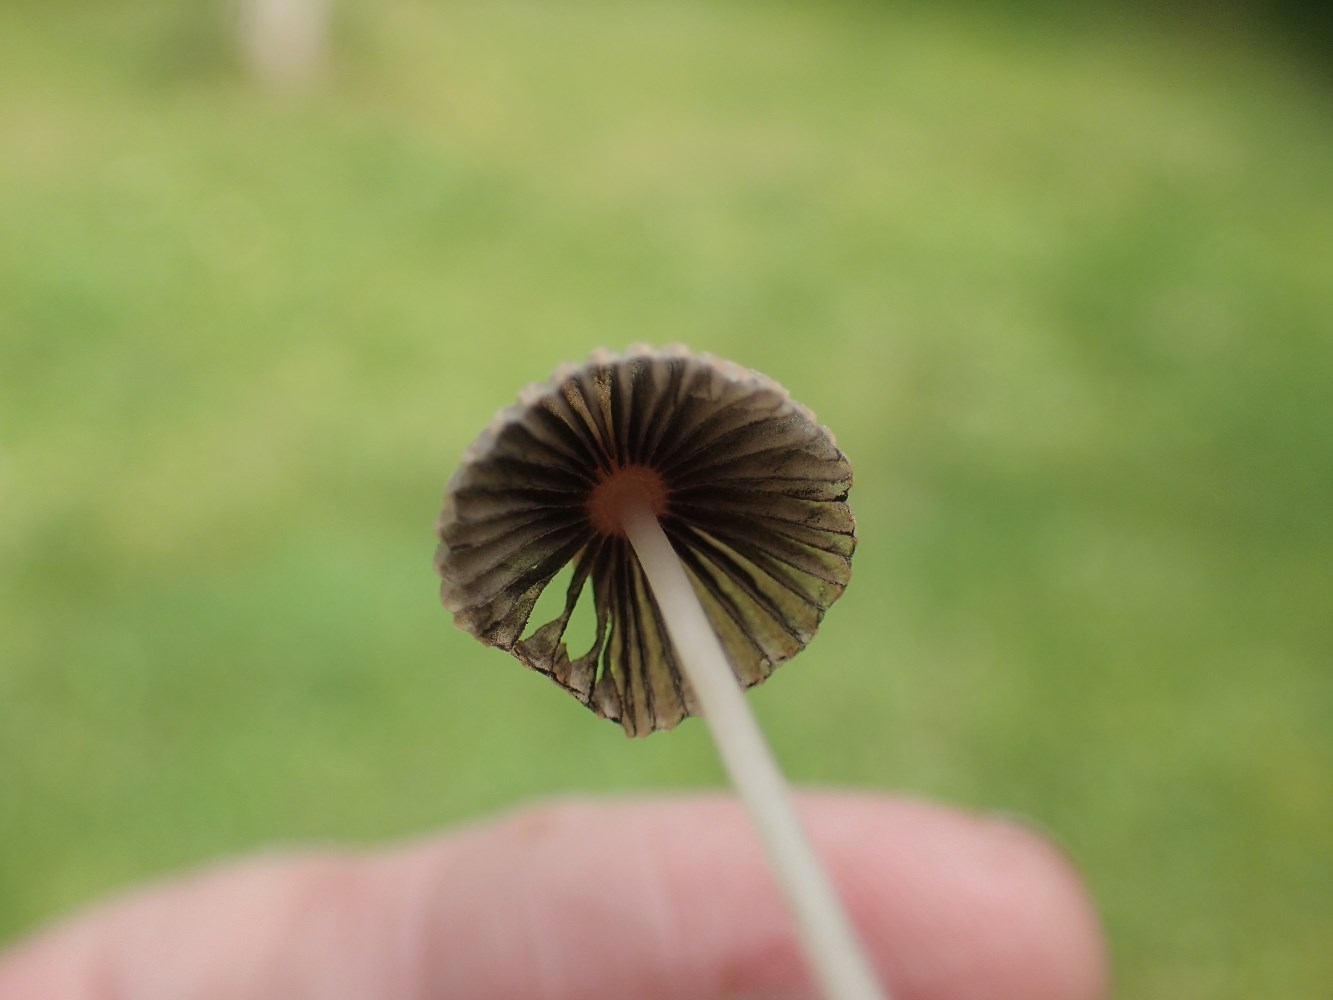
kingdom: Fungi
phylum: Basidiomycota
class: Agaricomycetes
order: Agaricales
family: Psathyrellaceae
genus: Parasola
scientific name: Parasola
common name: hjulhat
